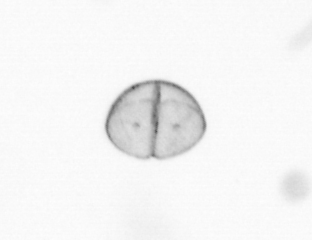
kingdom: Chromista
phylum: Ochrophyta
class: Bacillariophyceae
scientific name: Bacillariophyceae
